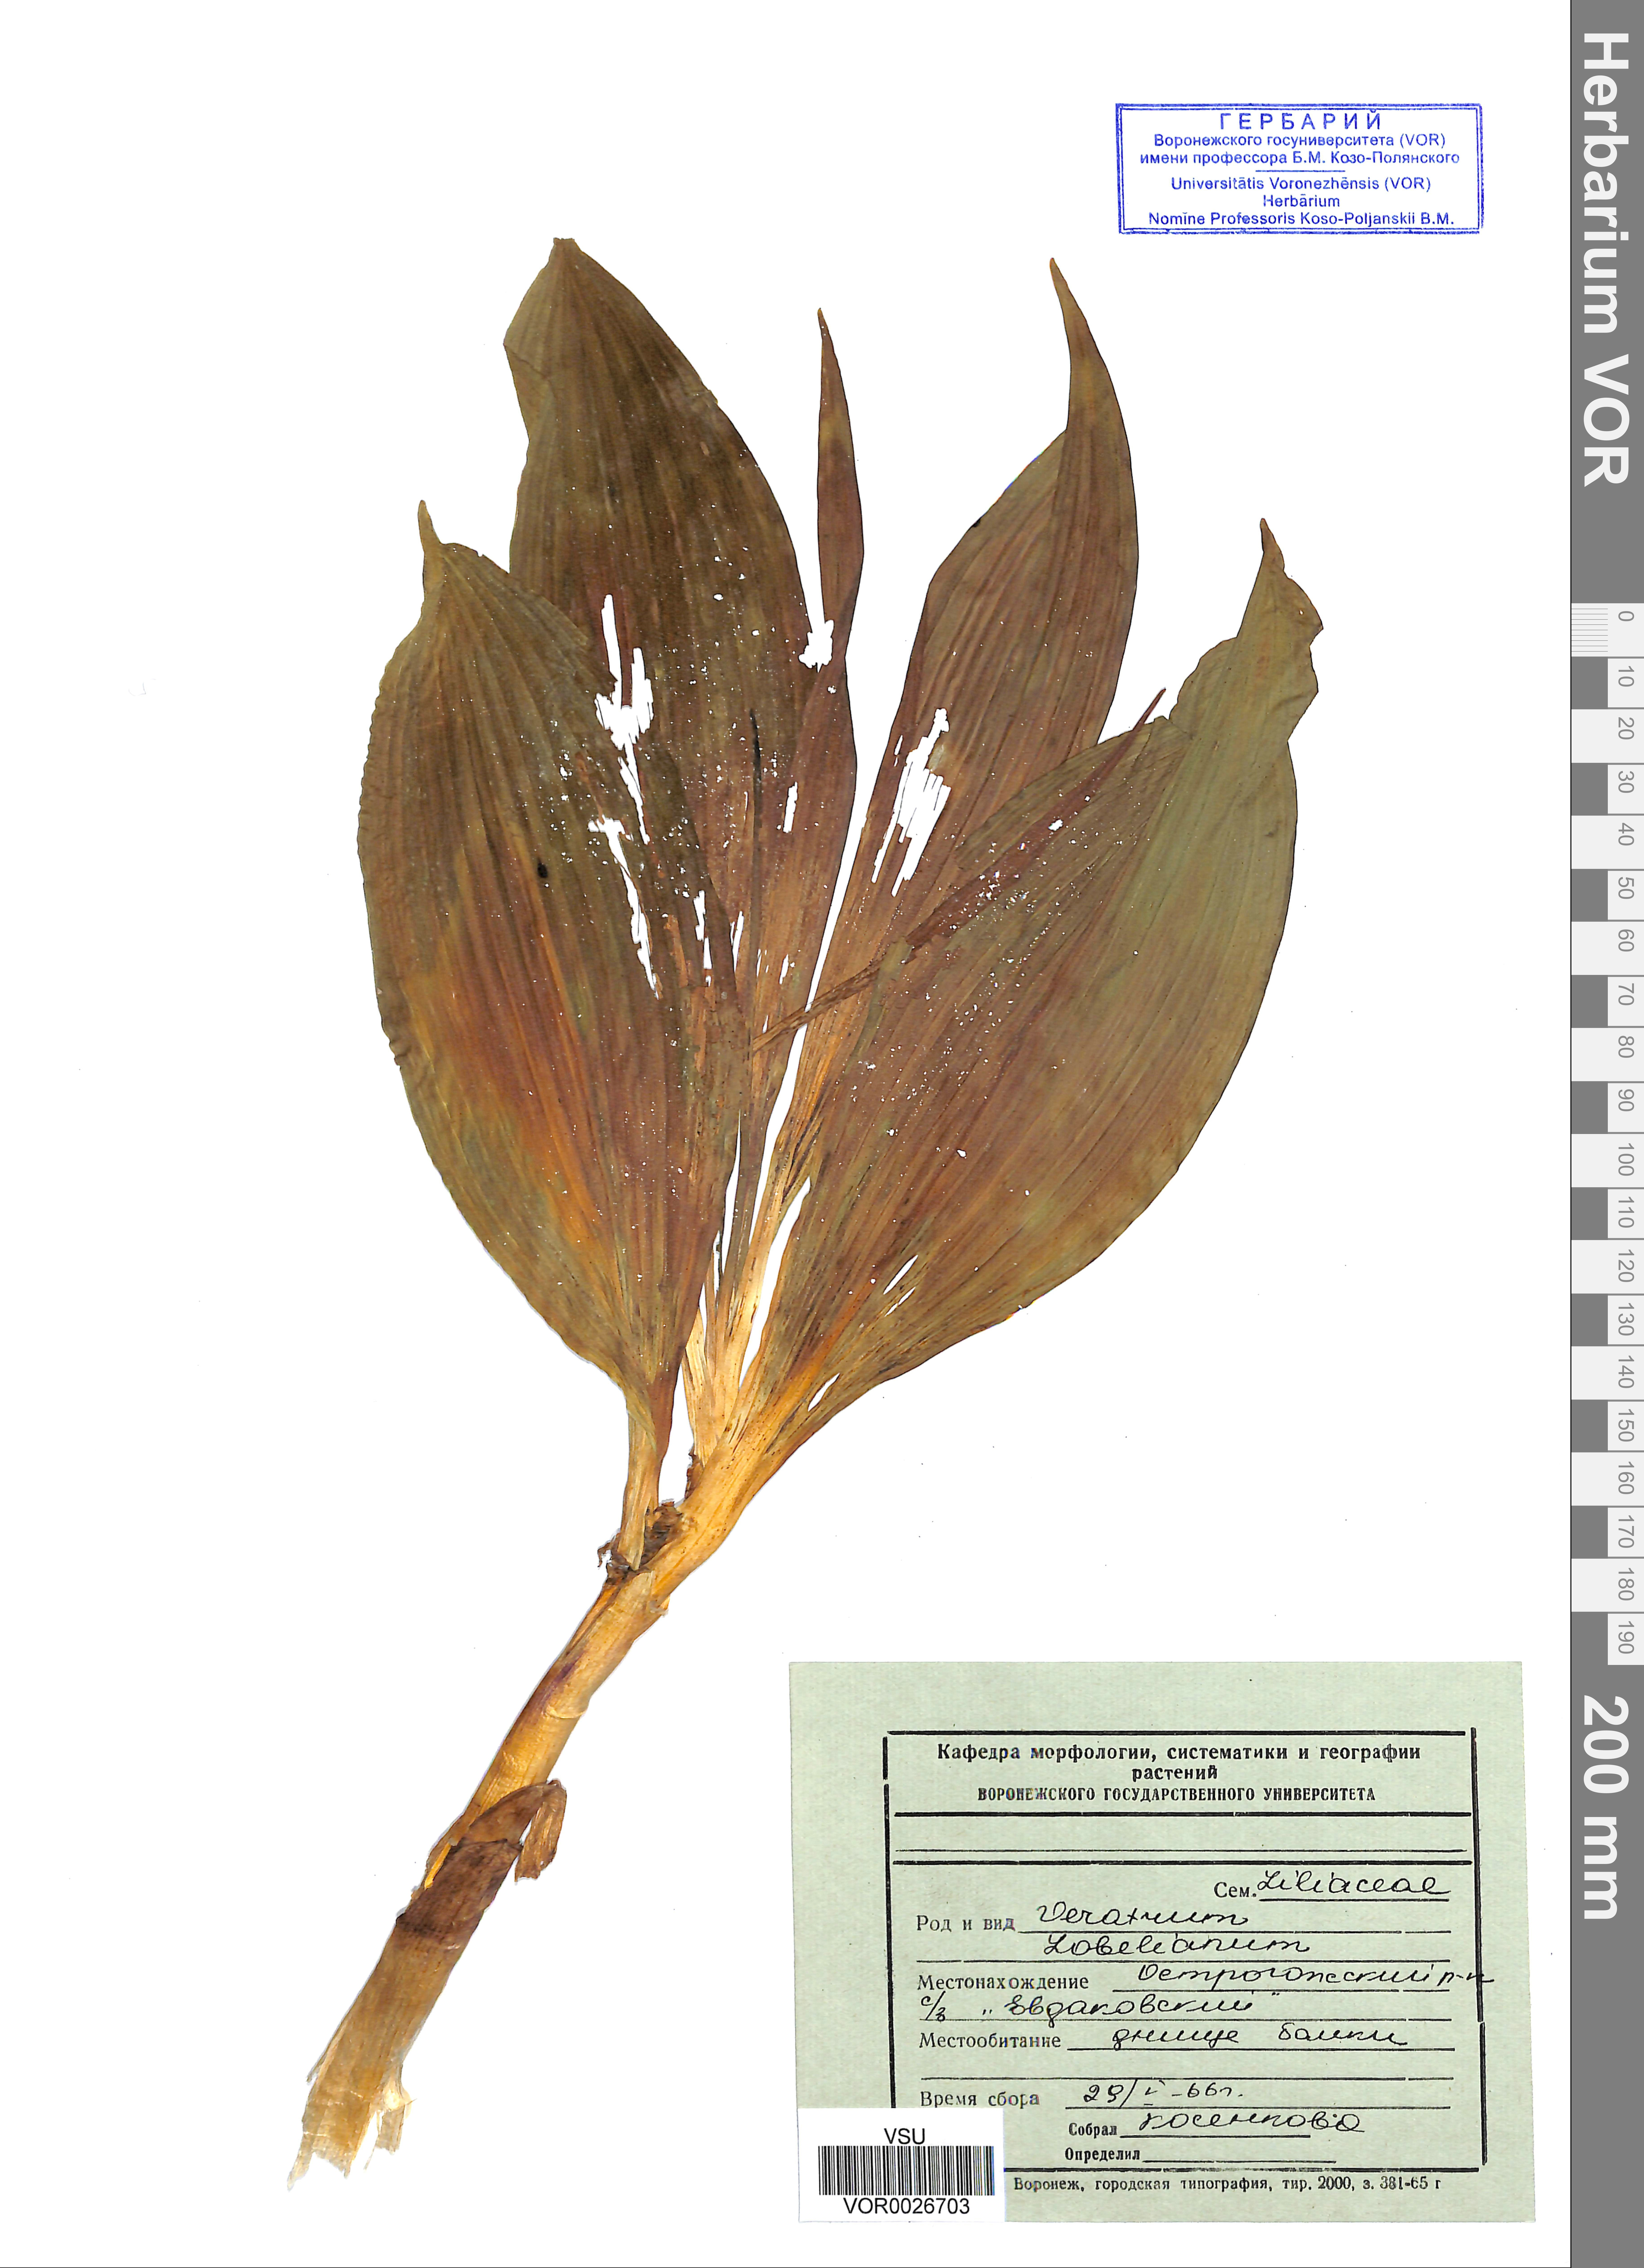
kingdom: Plantae
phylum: Tracheophyta
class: Liliopsida
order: Liliales
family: Melanthiaceae
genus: Veratrum
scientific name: Veratrum lobelianum
